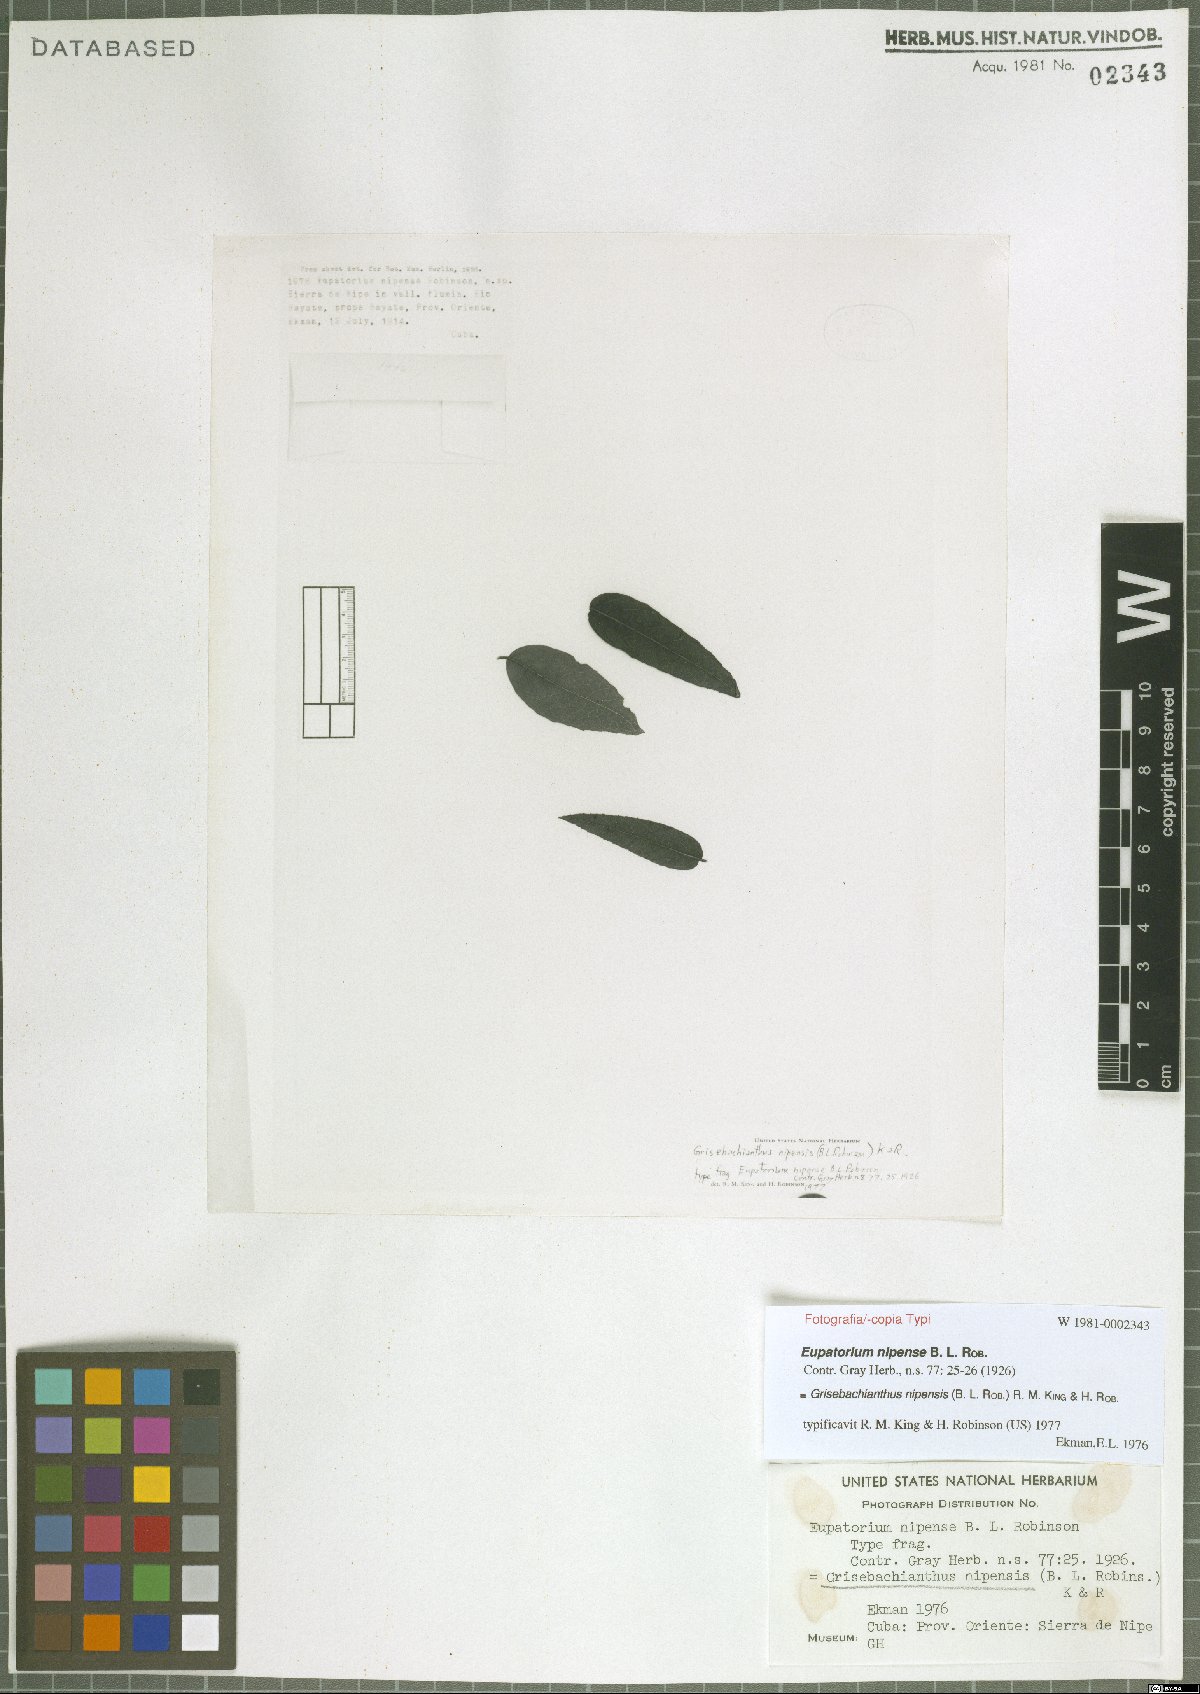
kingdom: Plantae
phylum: Tracheophyta
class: Magnoliopsida
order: Asterales
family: Asteraceae
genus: Grisebachianthus
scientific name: Grisebachianthus nipensis
